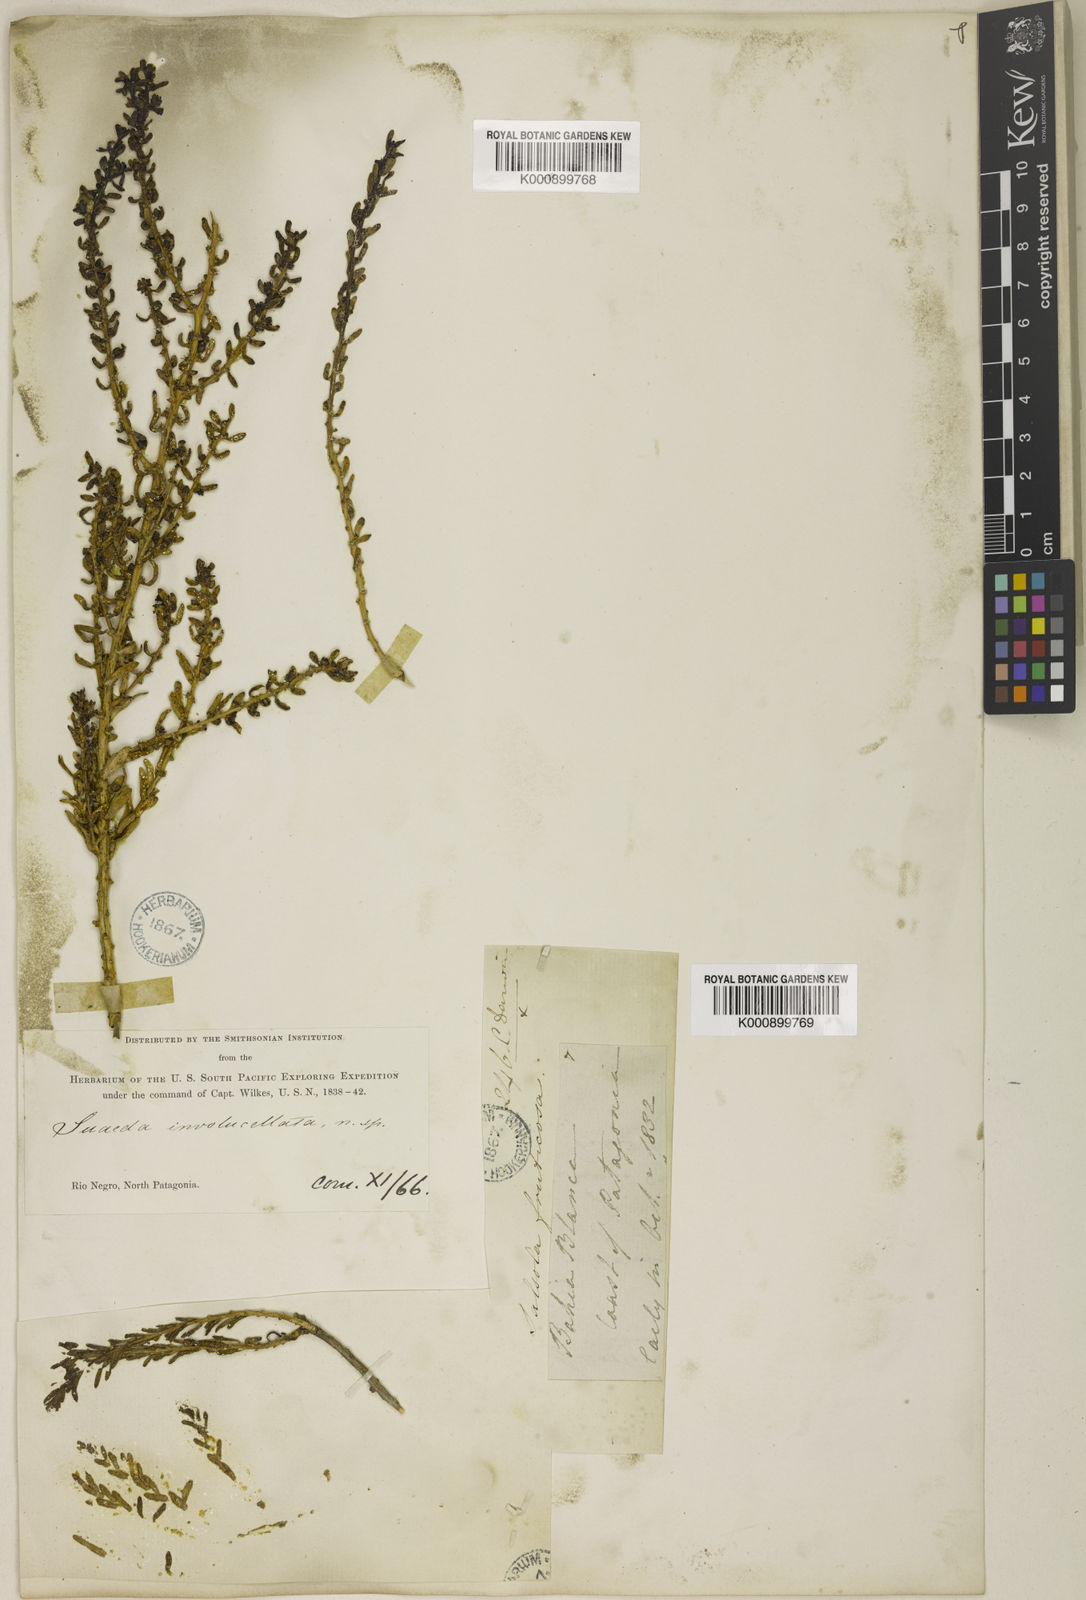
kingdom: Plantae
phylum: Tracheophyta
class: Magnoliopsida
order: Caryophyllales
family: Amaranthaceae
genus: Suaeda
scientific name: Suaeda
